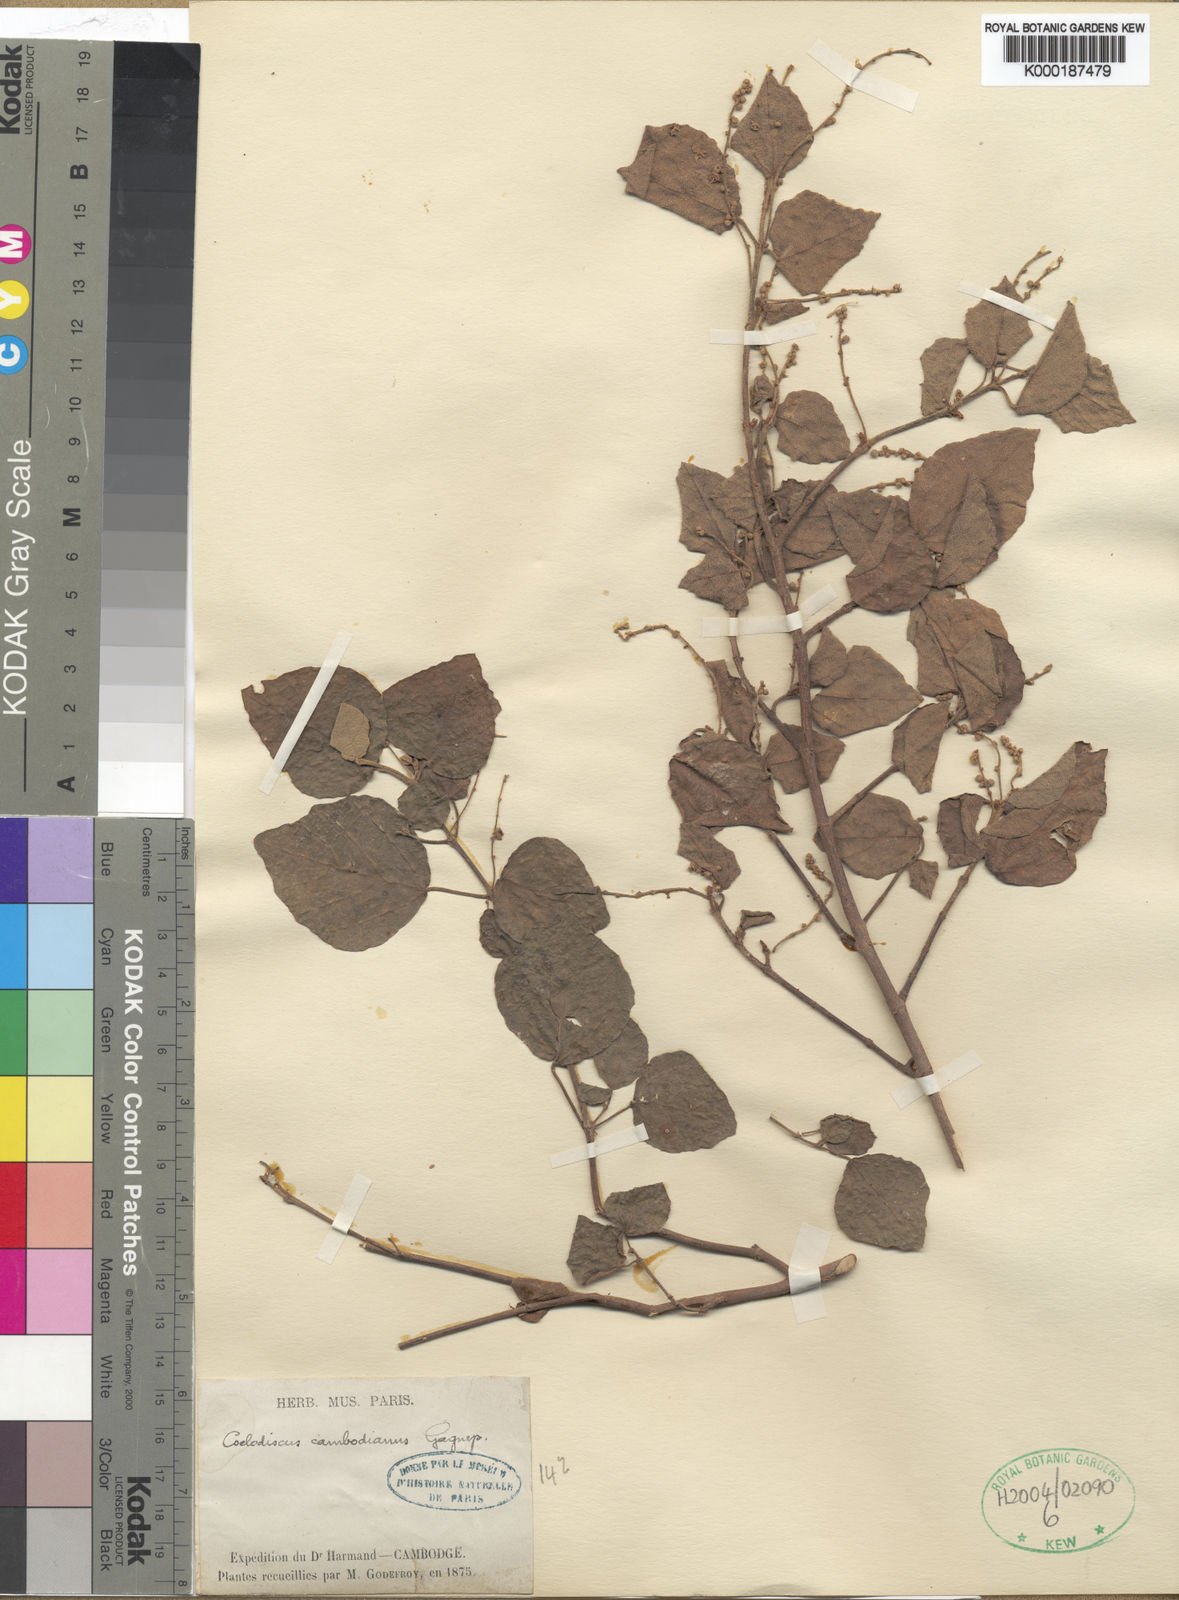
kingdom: Plantae
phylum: Tracheophyta
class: Magnoliopsida
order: Malpighiales
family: Euphorbiaceae
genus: Mallotus
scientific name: Mallotus cambodianus
